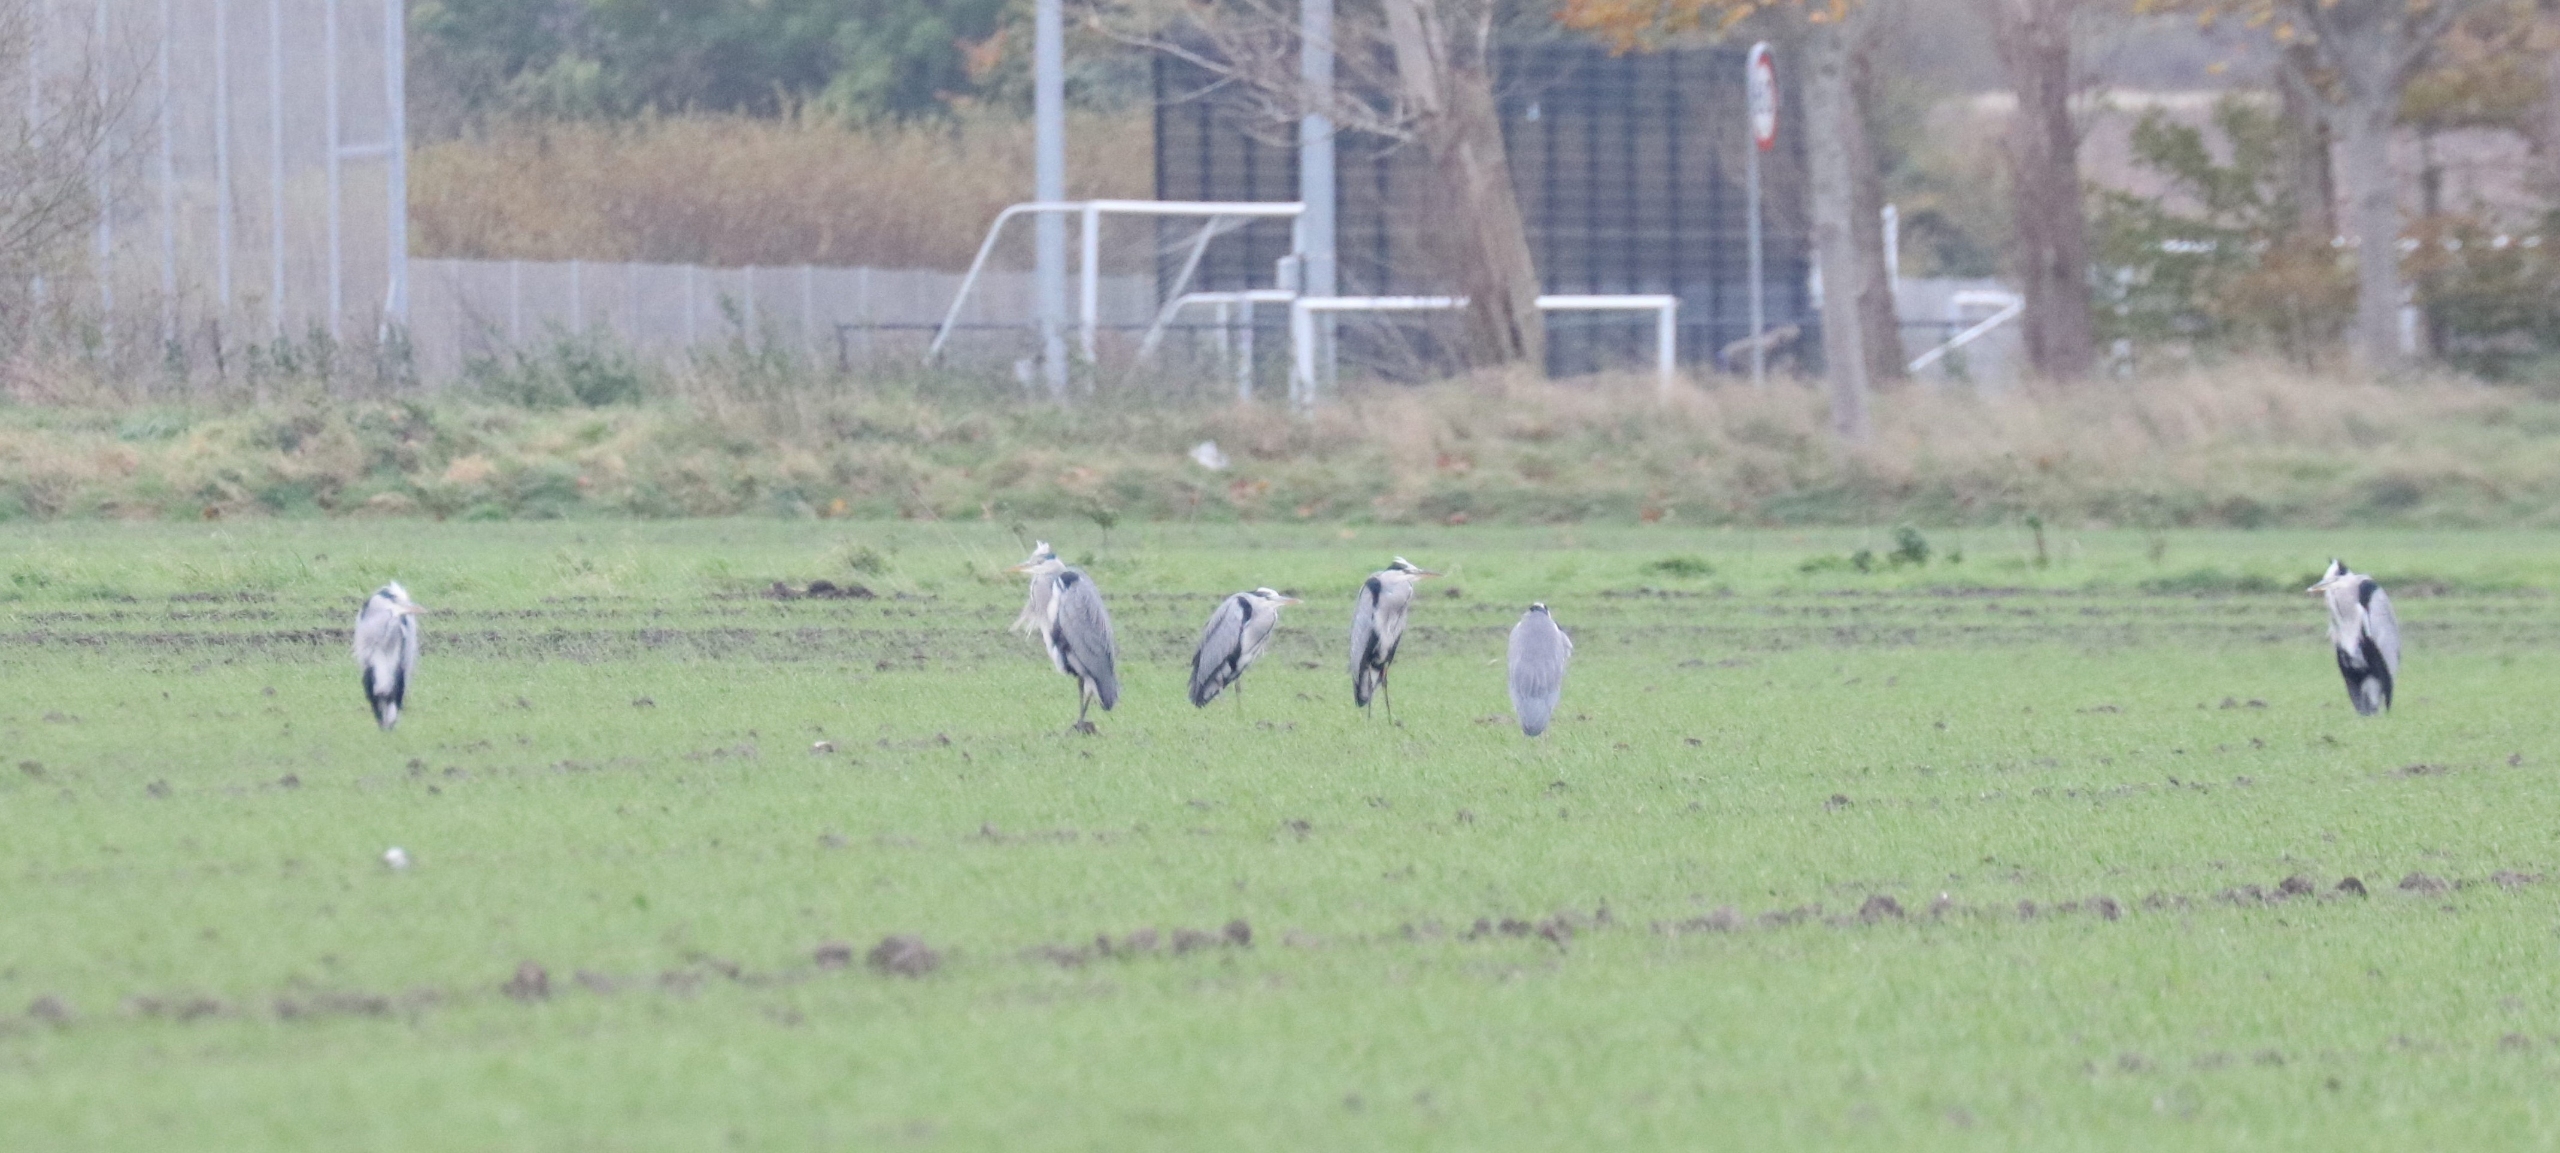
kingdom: Animalia
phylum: Chordata
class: Aves
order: Pelecaniformes
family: Ardeidae
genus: Ardea
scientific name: Ardea cinerea
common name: Fiskehejre
